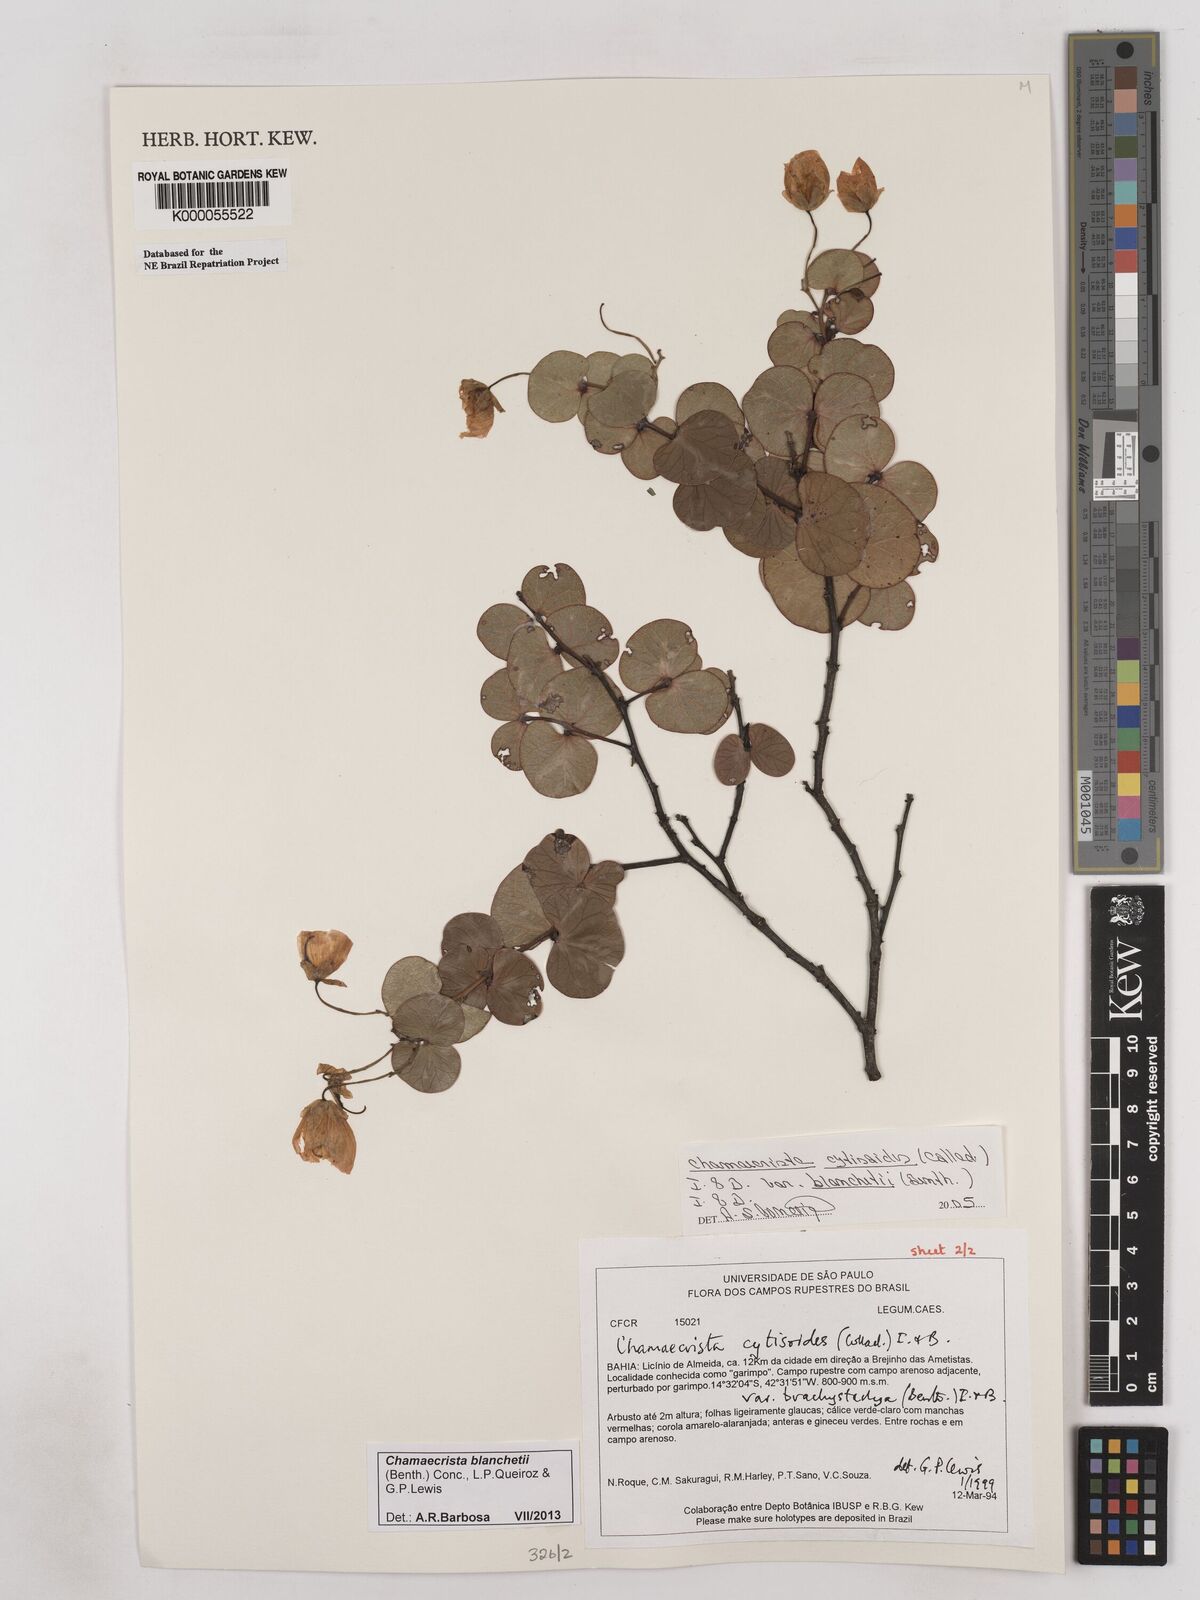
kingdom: Plantae
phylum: Tracheophyta
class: Magnoliopsida
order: Fabales
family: Fabaceae
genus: Chamaecrista
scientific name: Chamaecrista cytisoides
